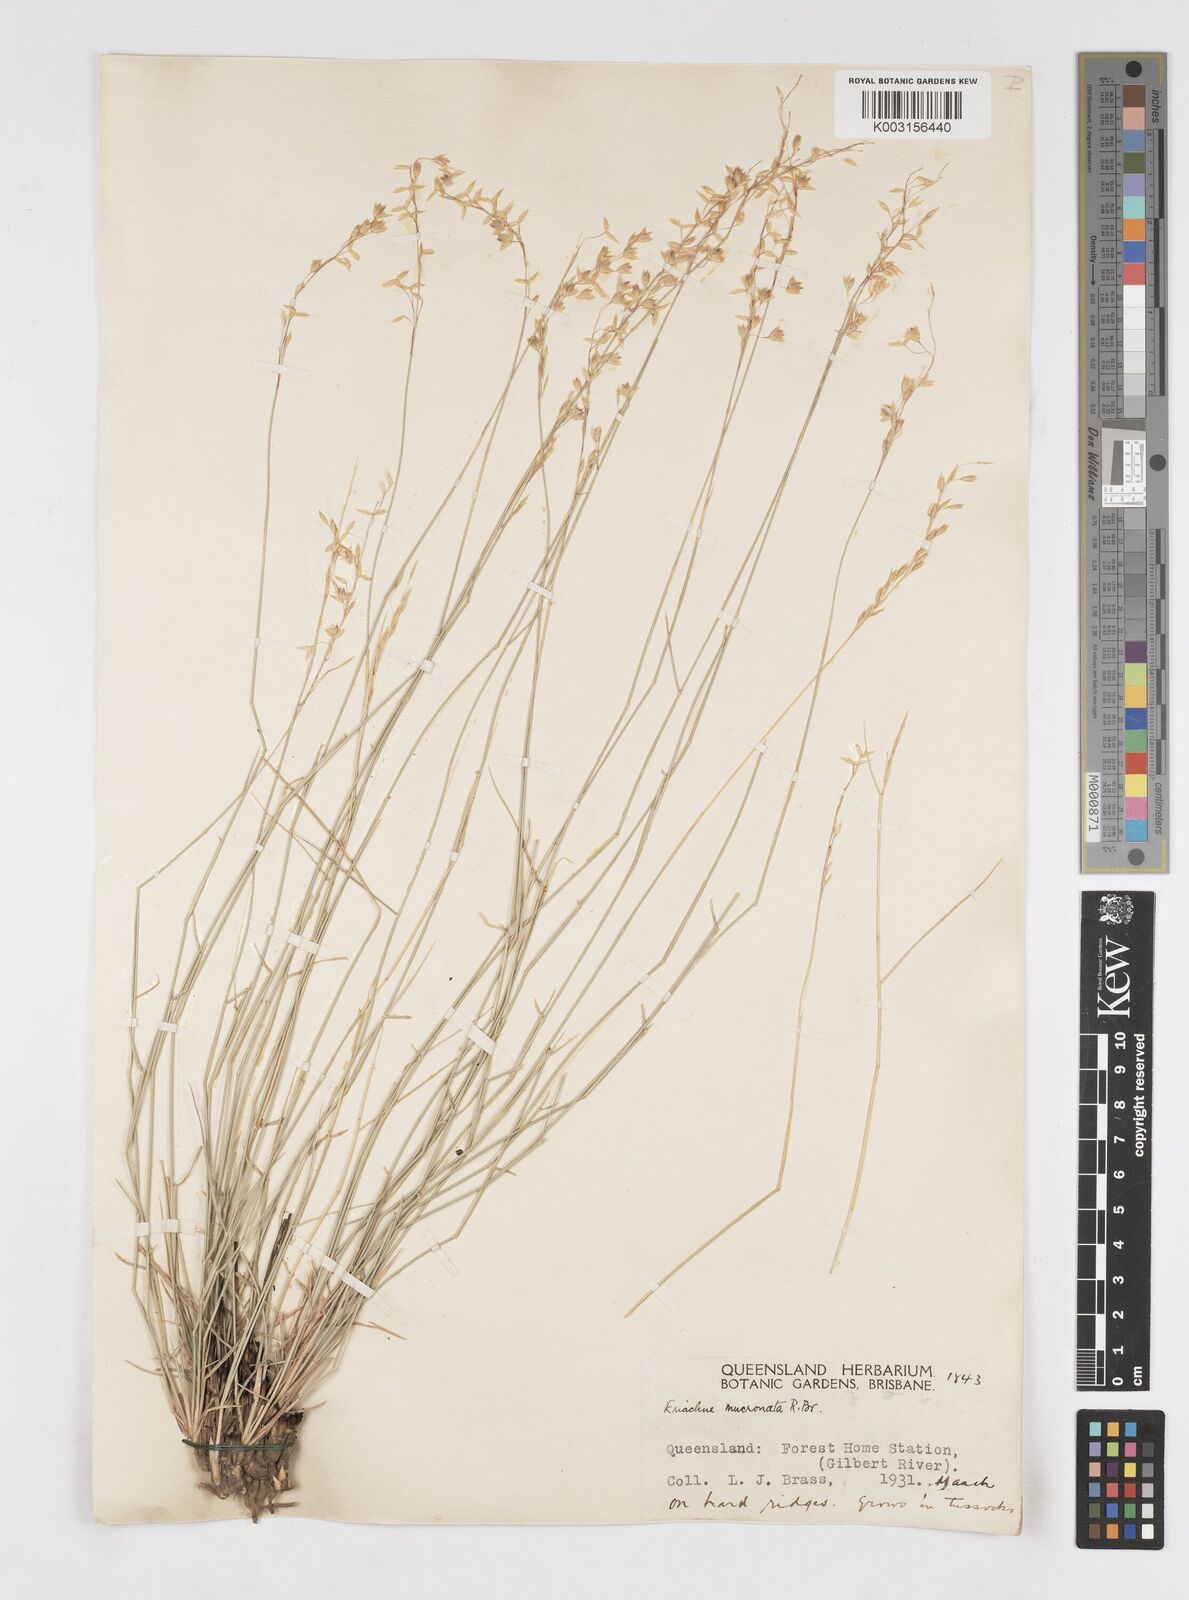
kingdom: Plantae
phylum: Tracheophyta
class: Liliopsida
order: Poales
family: Poaceae
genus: Eriachne
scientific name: Eriachne mucronata
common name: Mountain wanderrie grass
